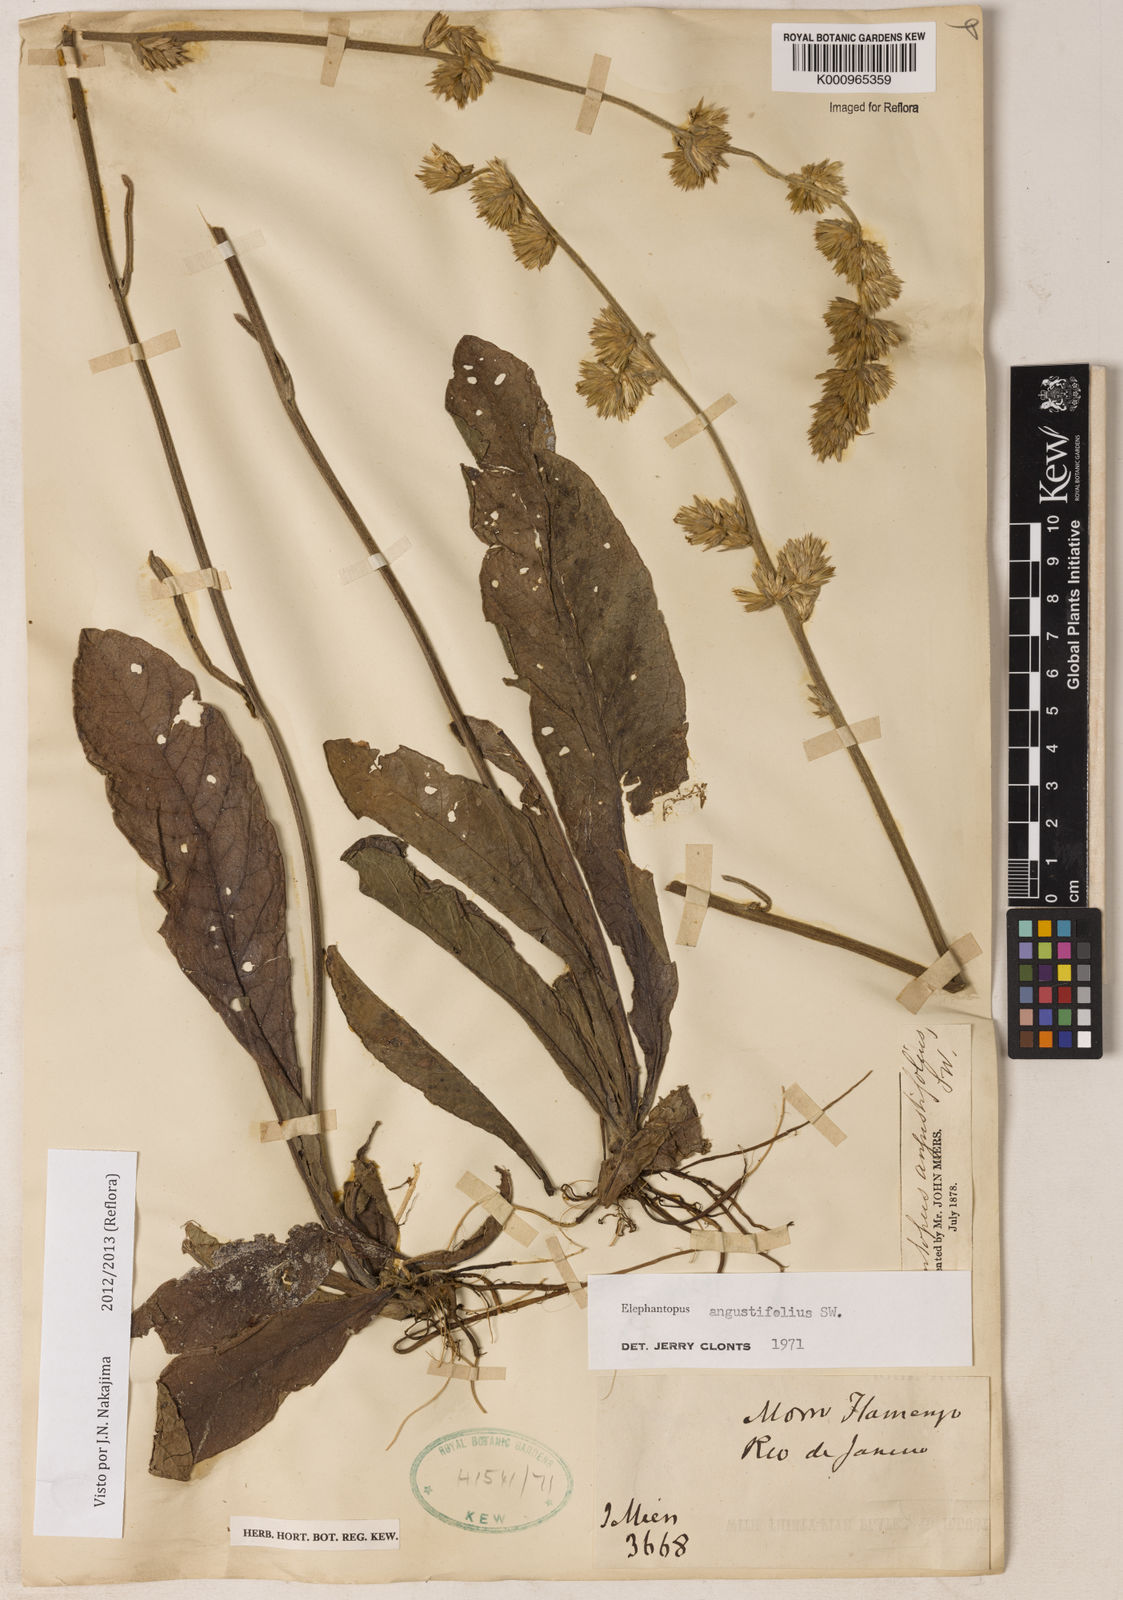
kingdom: Plantae
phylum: Tracheophyta
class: Magnoliopsida
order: Asterales
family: Asteraceae
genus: Orthopappus
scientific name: Orthopappus angustifolius
